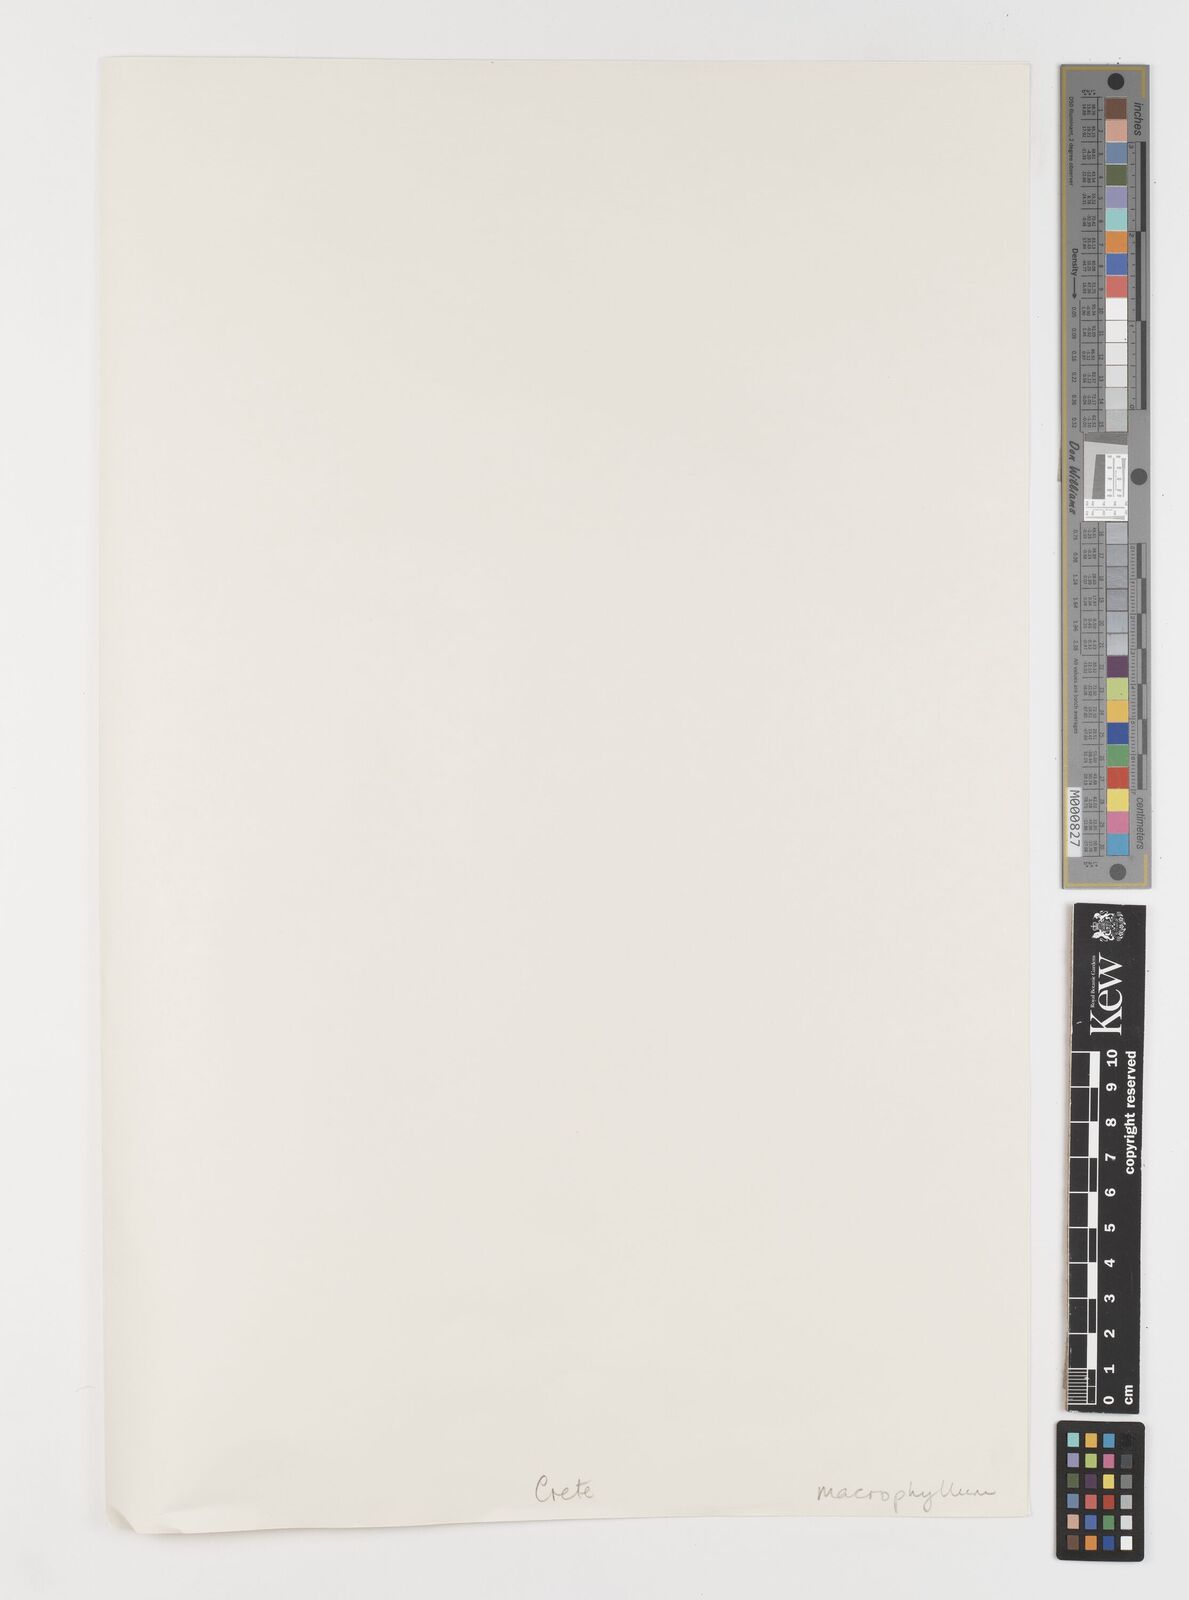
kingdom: Plantae
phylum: Tracheophyta
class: Liliopsida
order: Liliales
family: Colchicaceae
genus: Colchicum
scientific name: Colchicum macrophyllum
